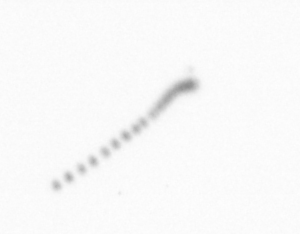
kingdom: Chromista
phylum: Ochrophyta
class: Bacillariophyceae
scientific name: Bacillariophyceae
